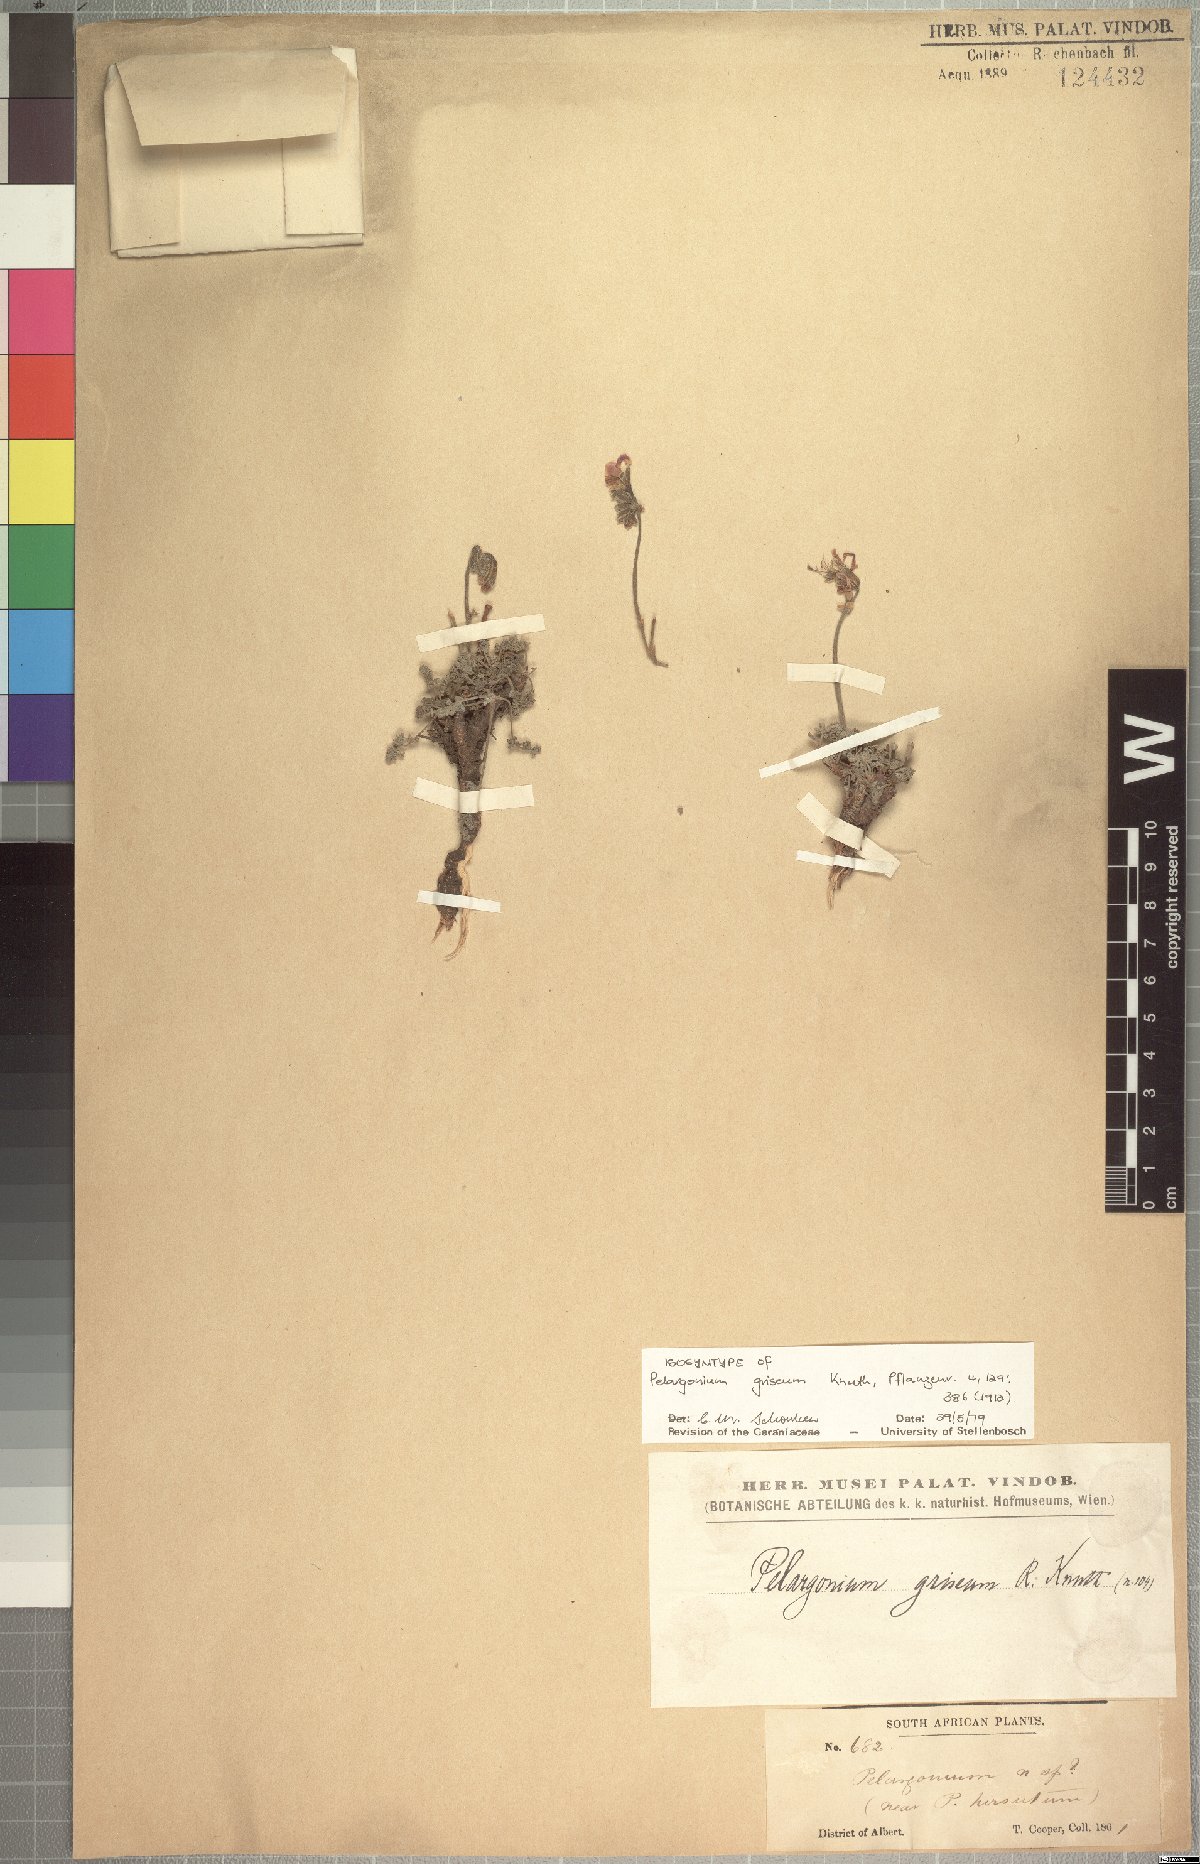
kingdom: Plantae
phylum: Tracheophyta
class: Magnoliopsida
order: Geraniales
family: Geraniaceae
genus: Pelargonium
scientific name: Pelargonium griseum
